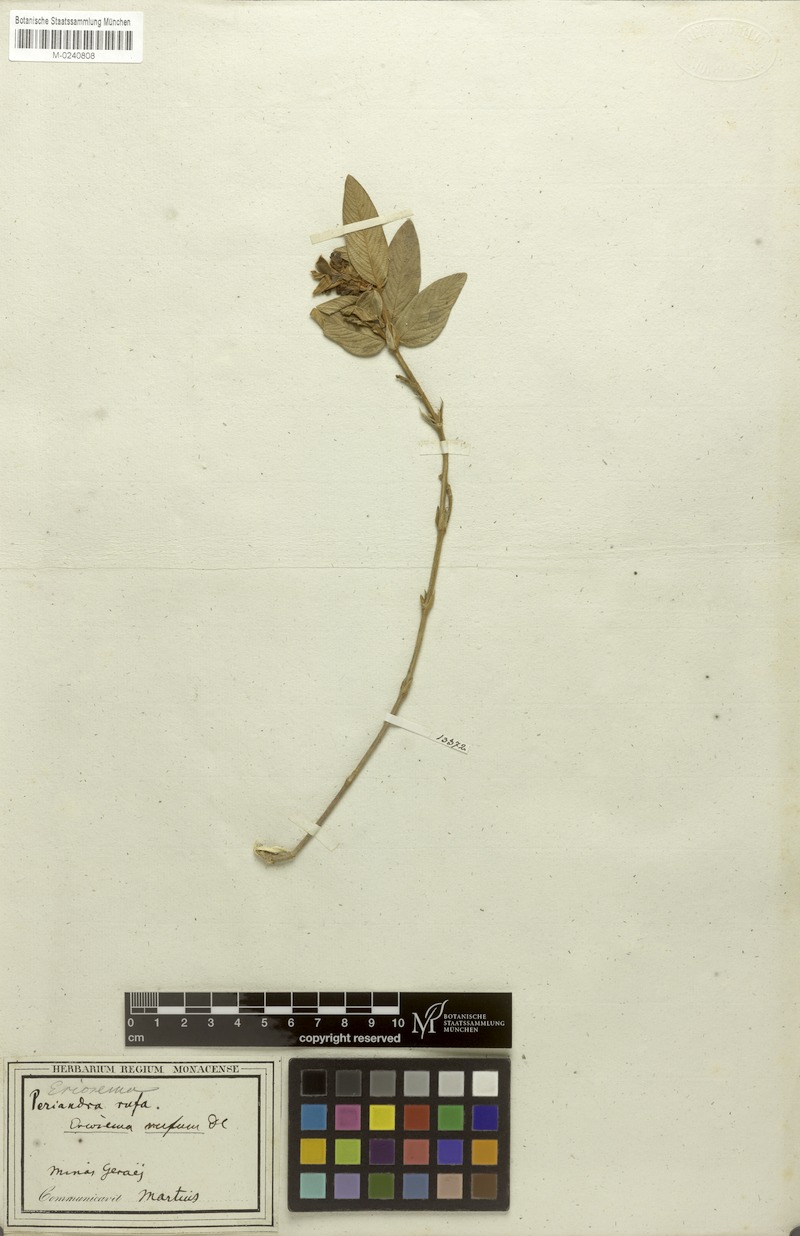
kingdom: Plantae
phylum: Tracheophyta
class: Magnoliopsida
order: Fabales
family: Fabaceae
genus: Eriosema
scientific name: Eriosema rufum
